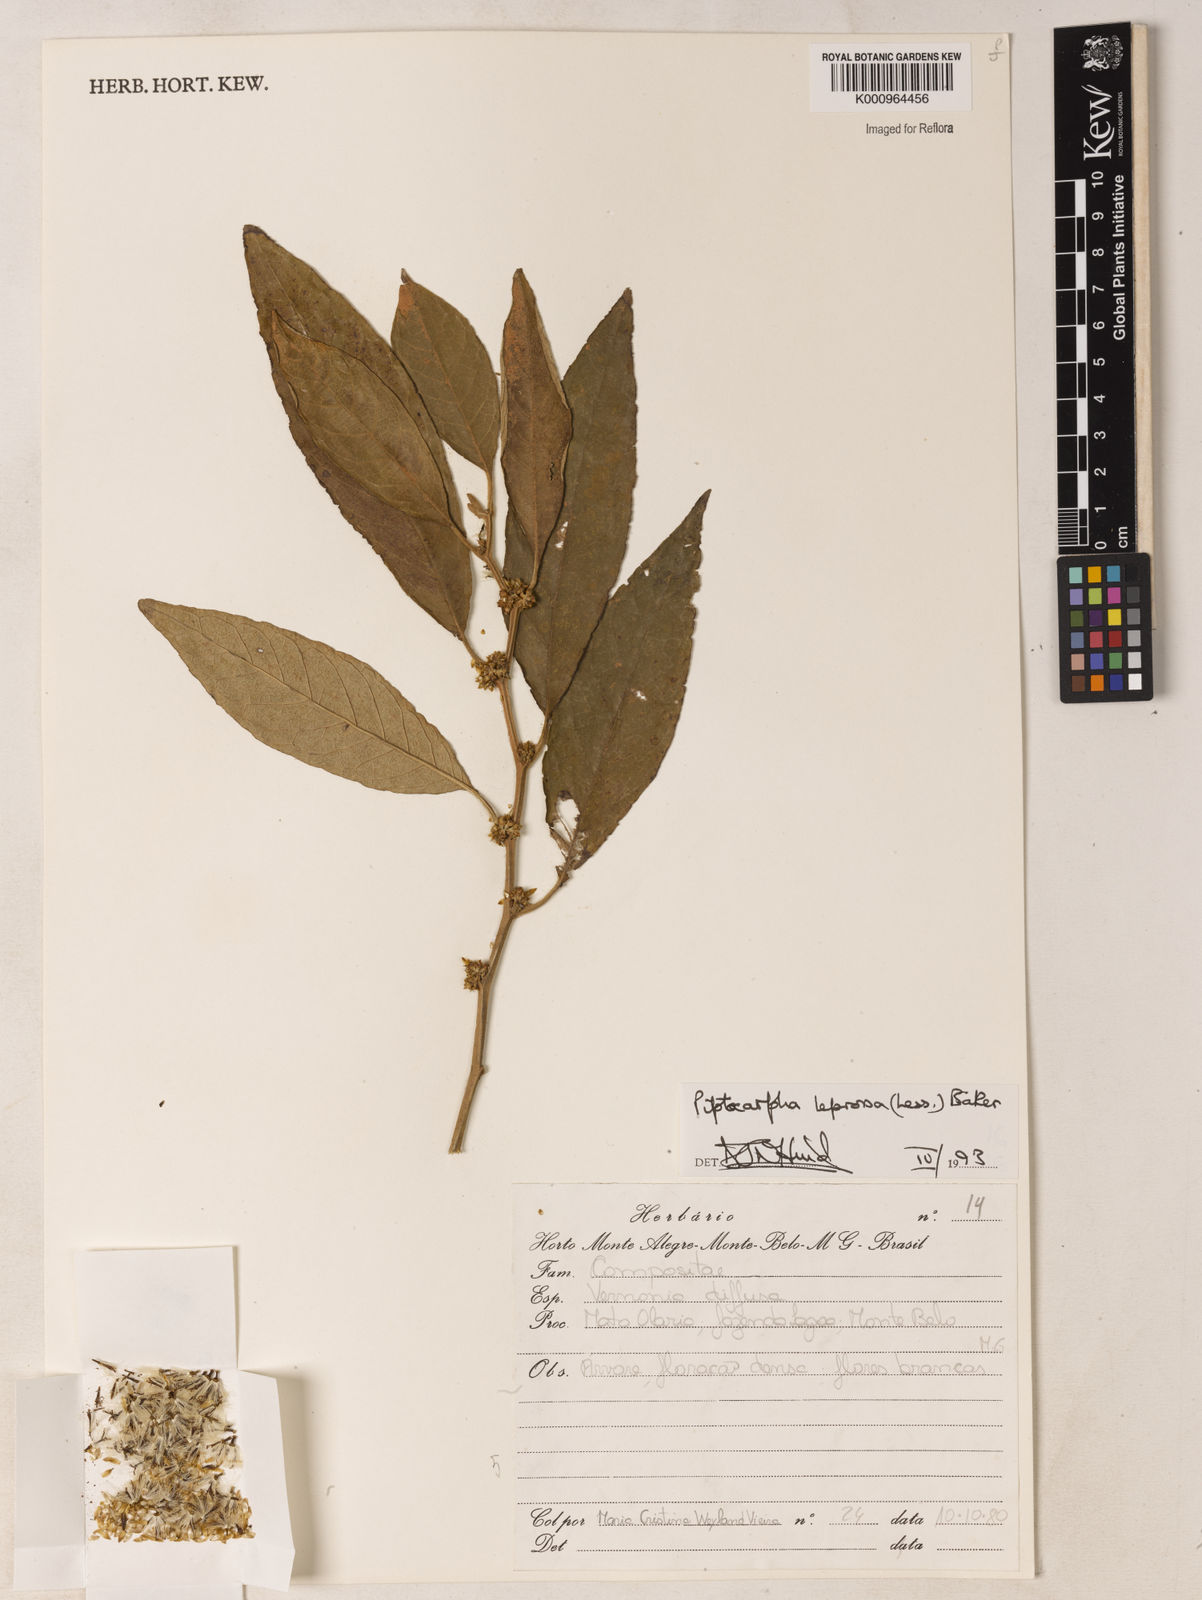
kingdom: Plantae
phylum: Tracheophyta
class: Magnoliopsida
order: Asterales
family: Asteraceae
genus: Piptocarpha
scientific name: Piptocarpha leprosa
